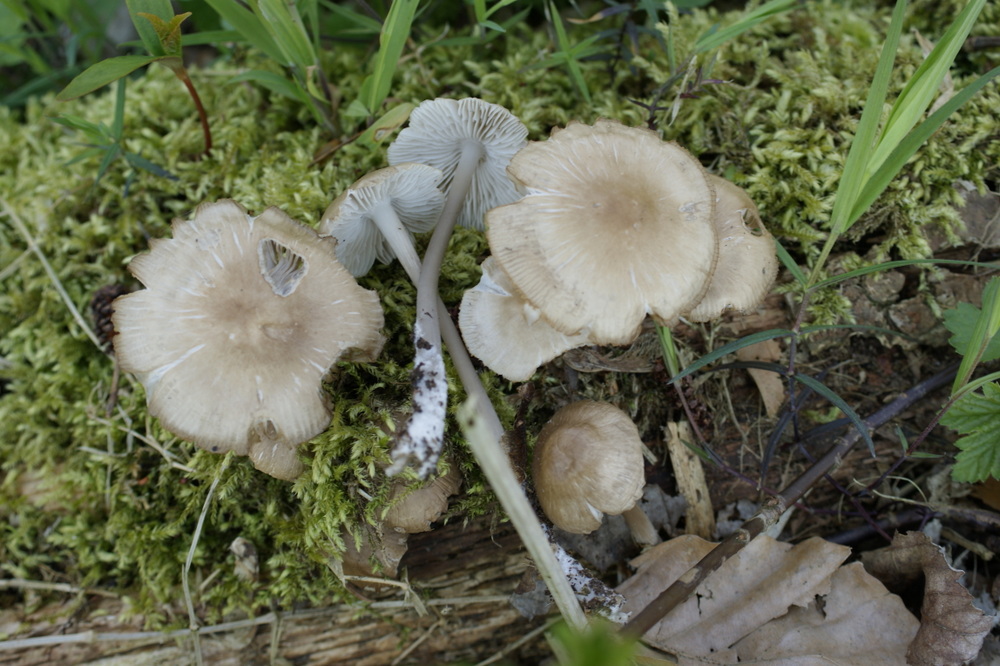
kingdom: Fungi
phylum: Basidiomycota
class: Agaricomycetes
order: Agaricales
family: Mycenaceae
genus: Mycena
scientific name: Mycena galericulata
